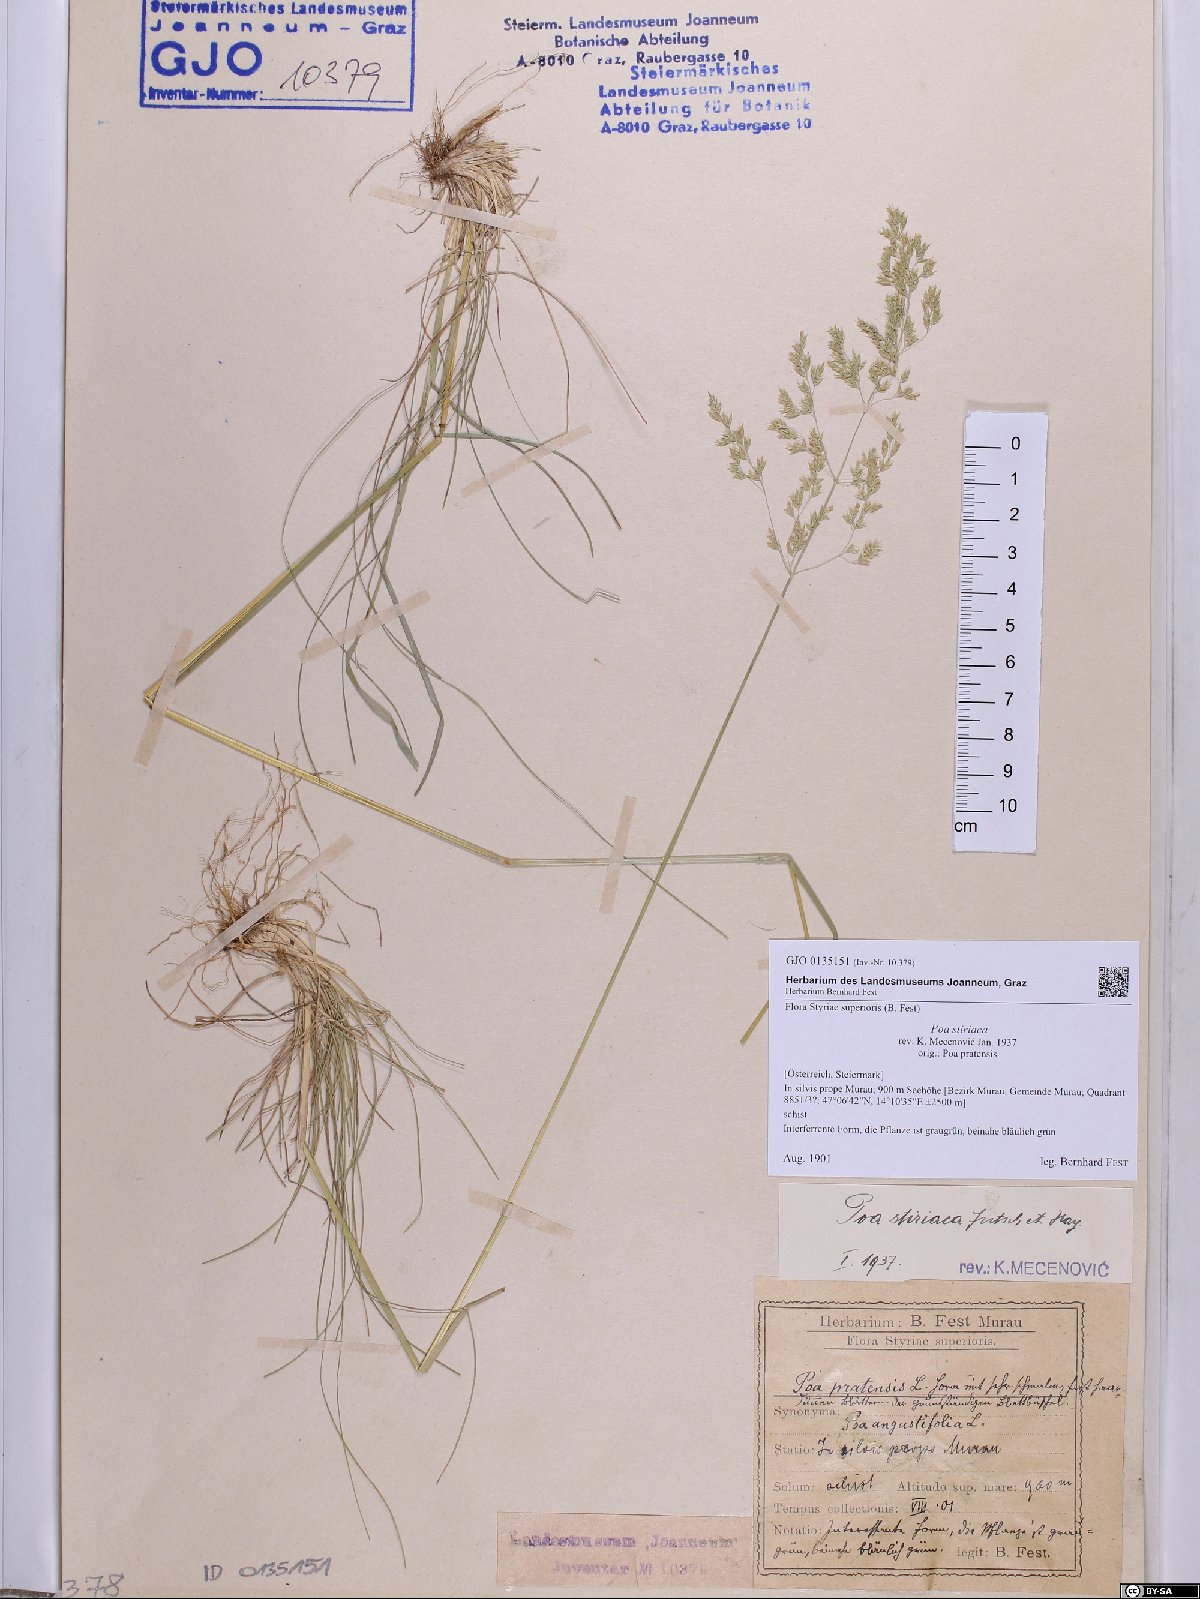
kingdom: Plantae
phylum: Tracheophyta
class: Liliopsida
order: Poales
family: Poaceae
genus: Poa
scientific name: Poa stiriaca
